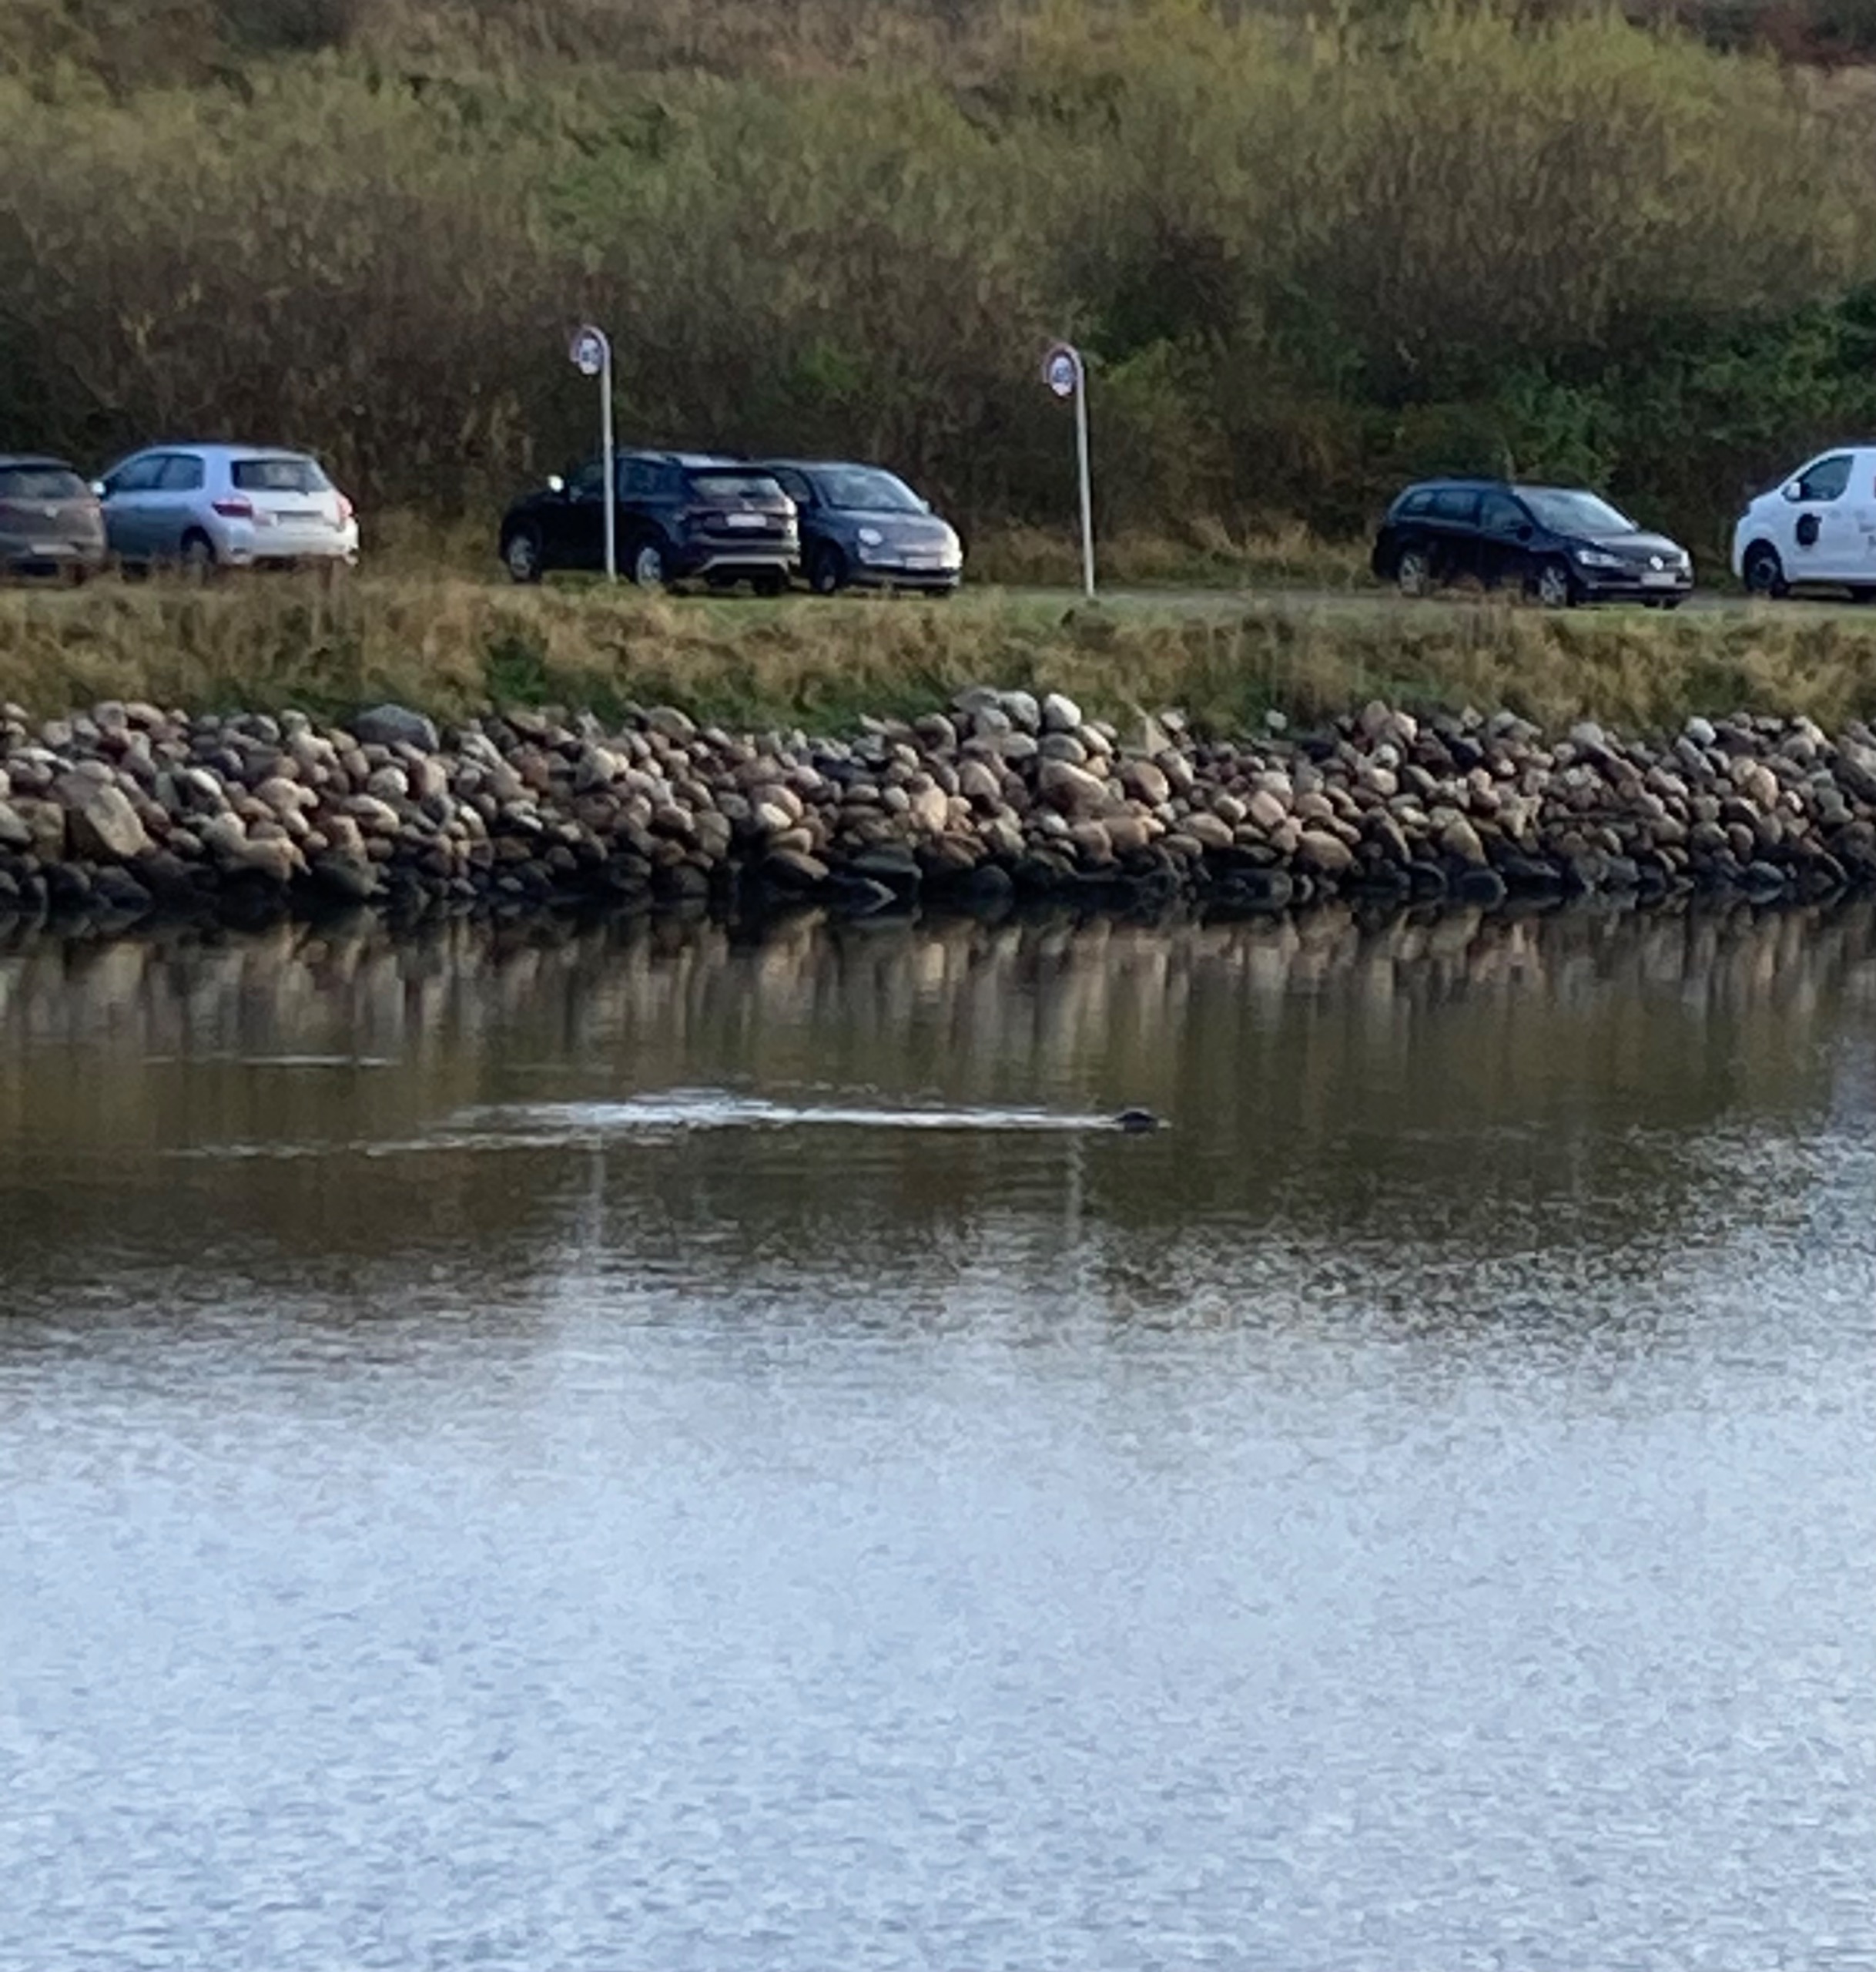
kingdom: Animalia
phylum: Chordata
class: Mammalia
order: Carnivora
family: Phocidae
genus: Phoca
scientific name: Phoca vitulina
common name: Spættet sæl
